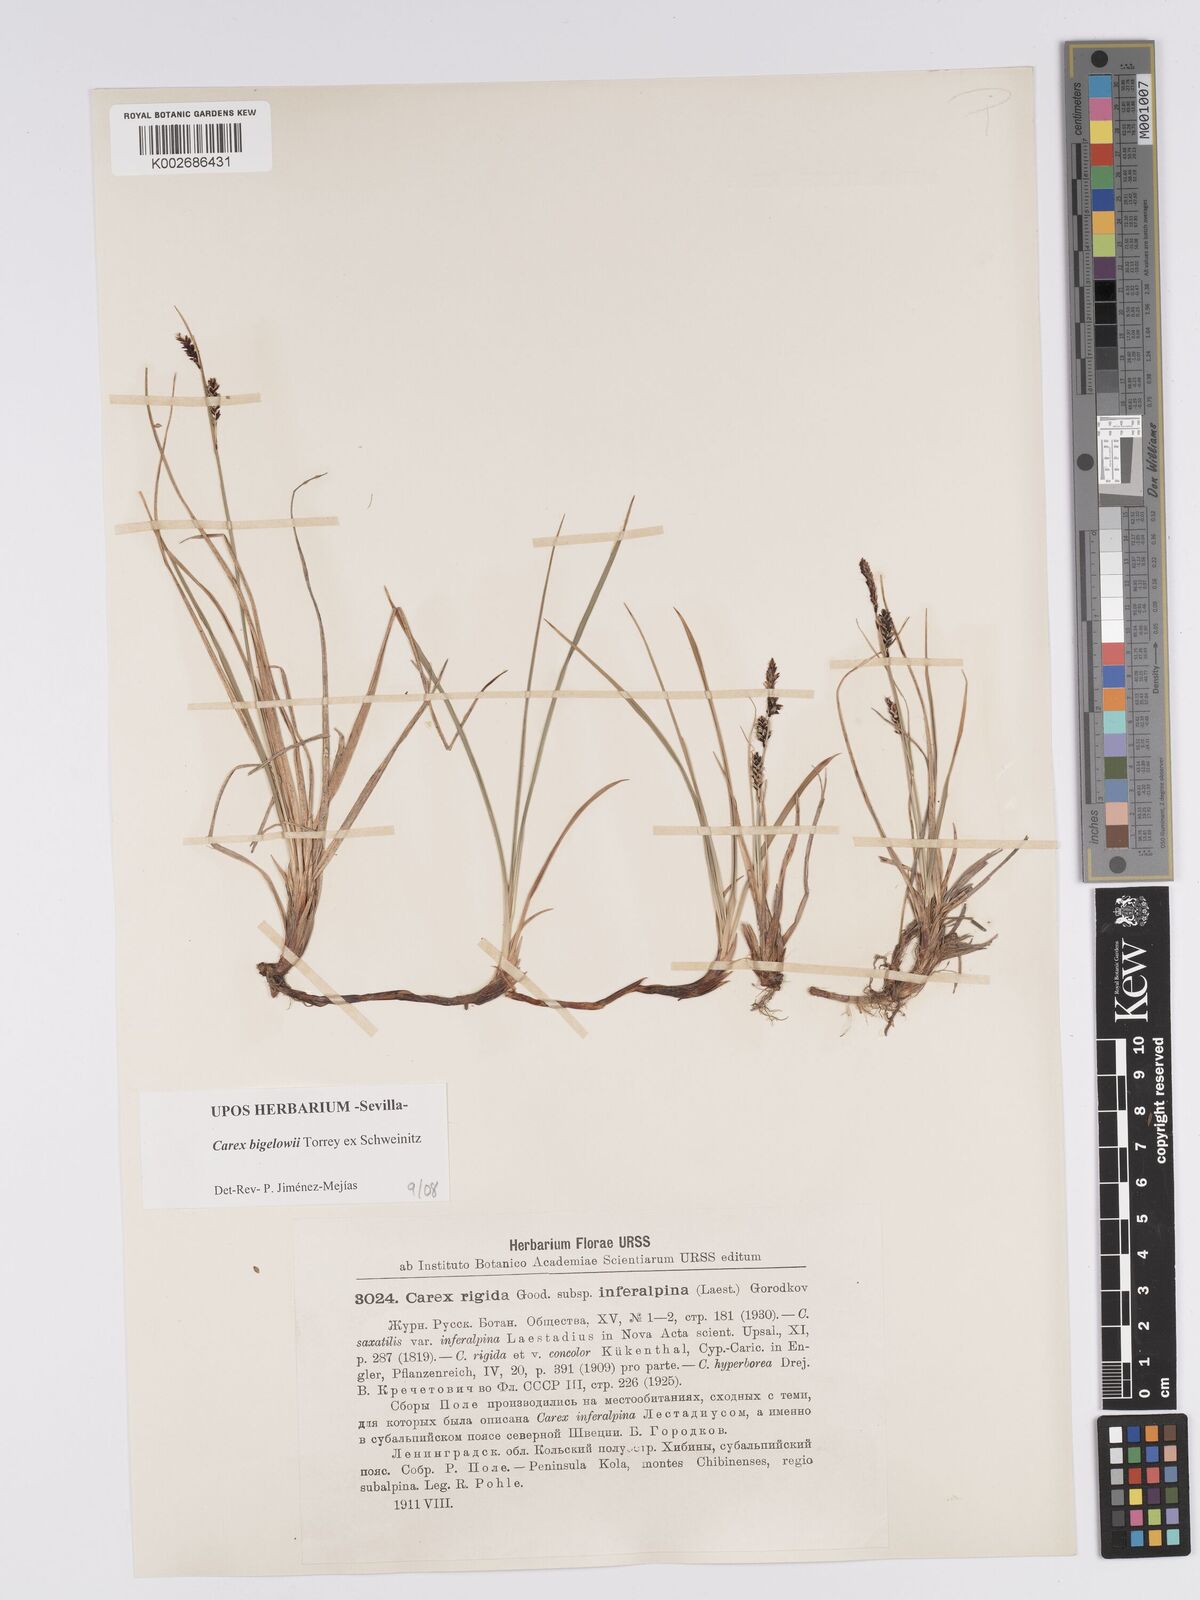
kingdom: Plantae
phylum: Tracheophyta
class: Liliopsida
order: Poales
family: Cyperaceae
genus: Carex
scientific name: Carex bigelowii
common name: Stiff sedge
